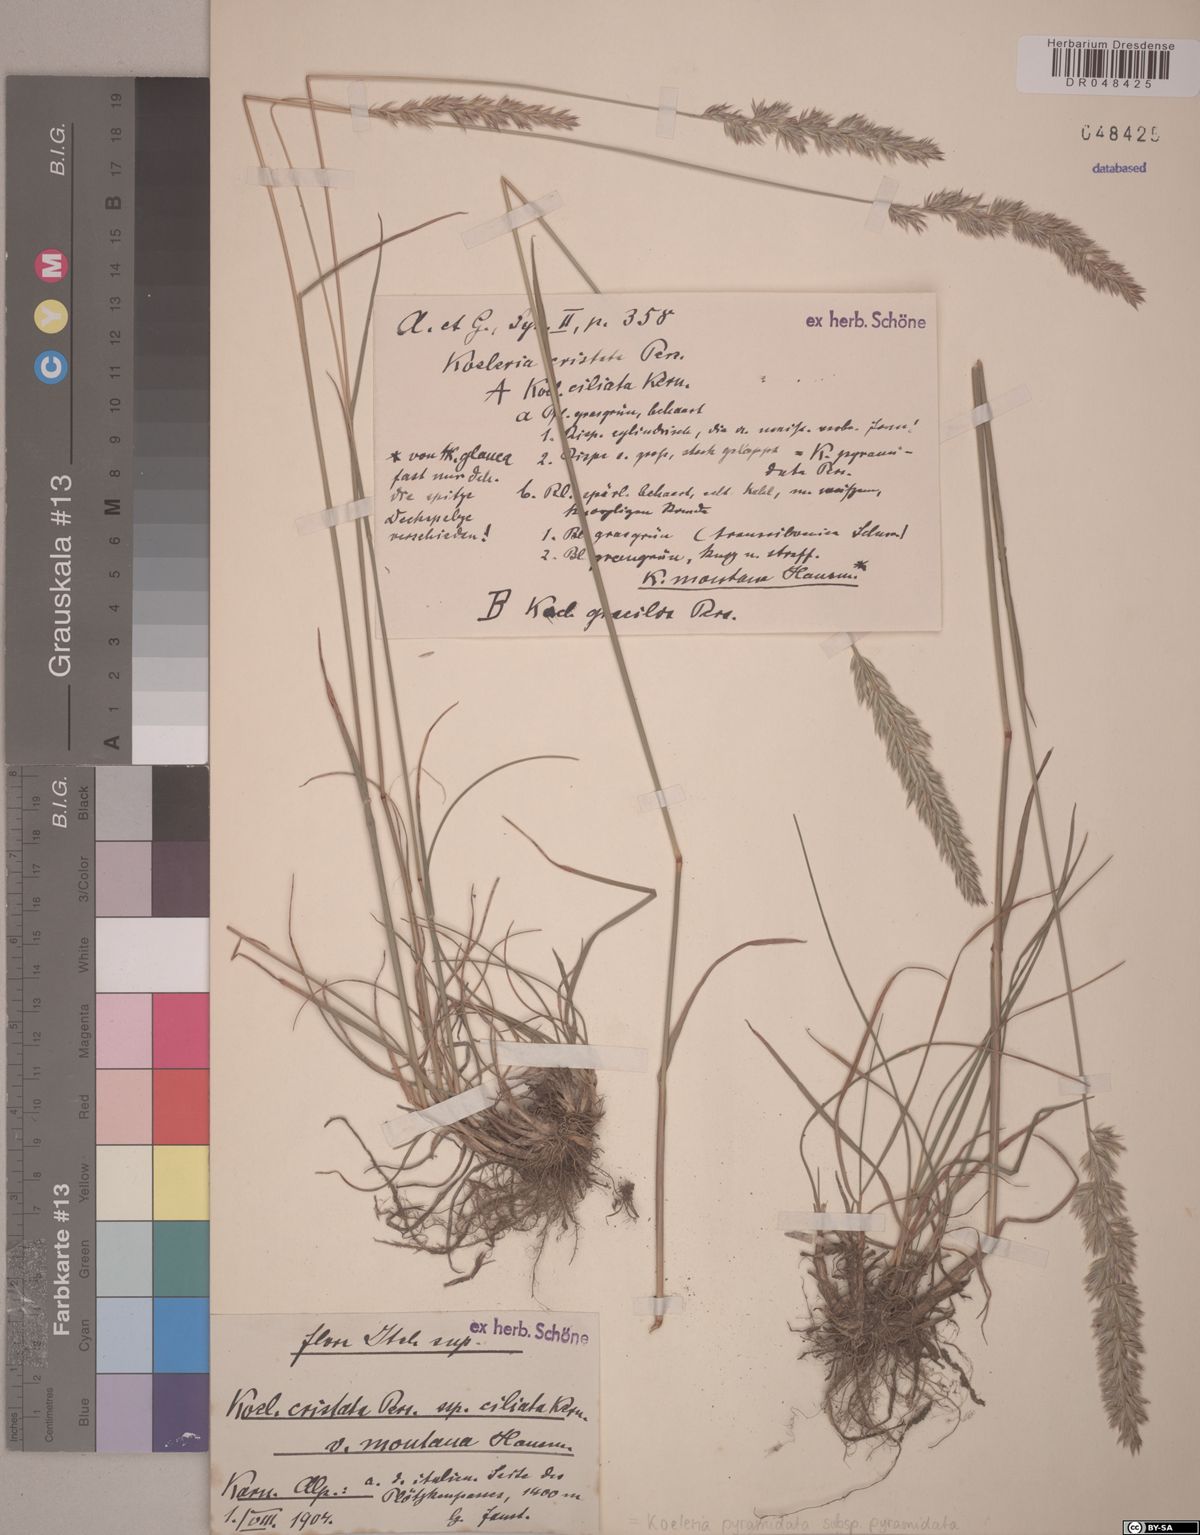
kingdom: Plantae
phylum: Tracheophyta
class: Liliopsida
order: Poales
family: Poaceae
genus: Koeleria
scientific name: Koeleria pyramidata
